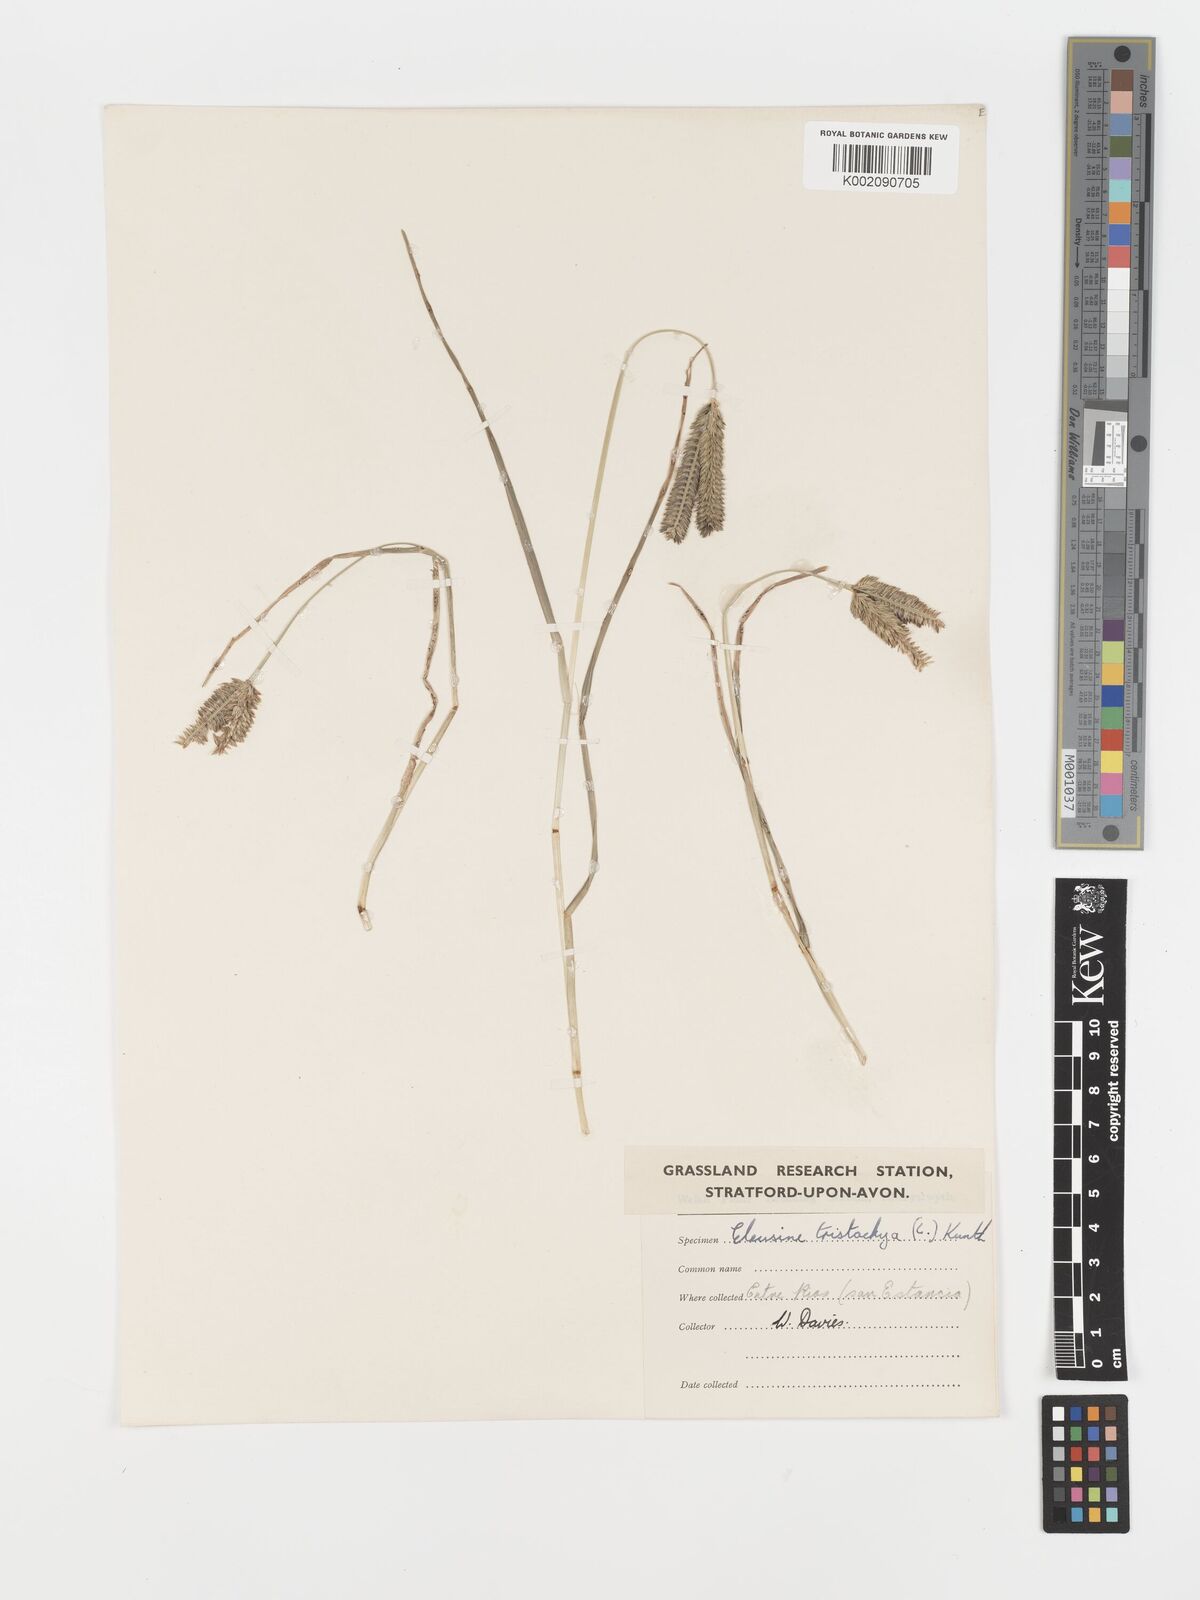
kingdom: Plantae
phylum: Tracheophyta
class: Liliopsida
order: Poales
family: Poaceae
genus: Eleusine
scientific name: Eleusine tristachya
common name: American yard-grass
